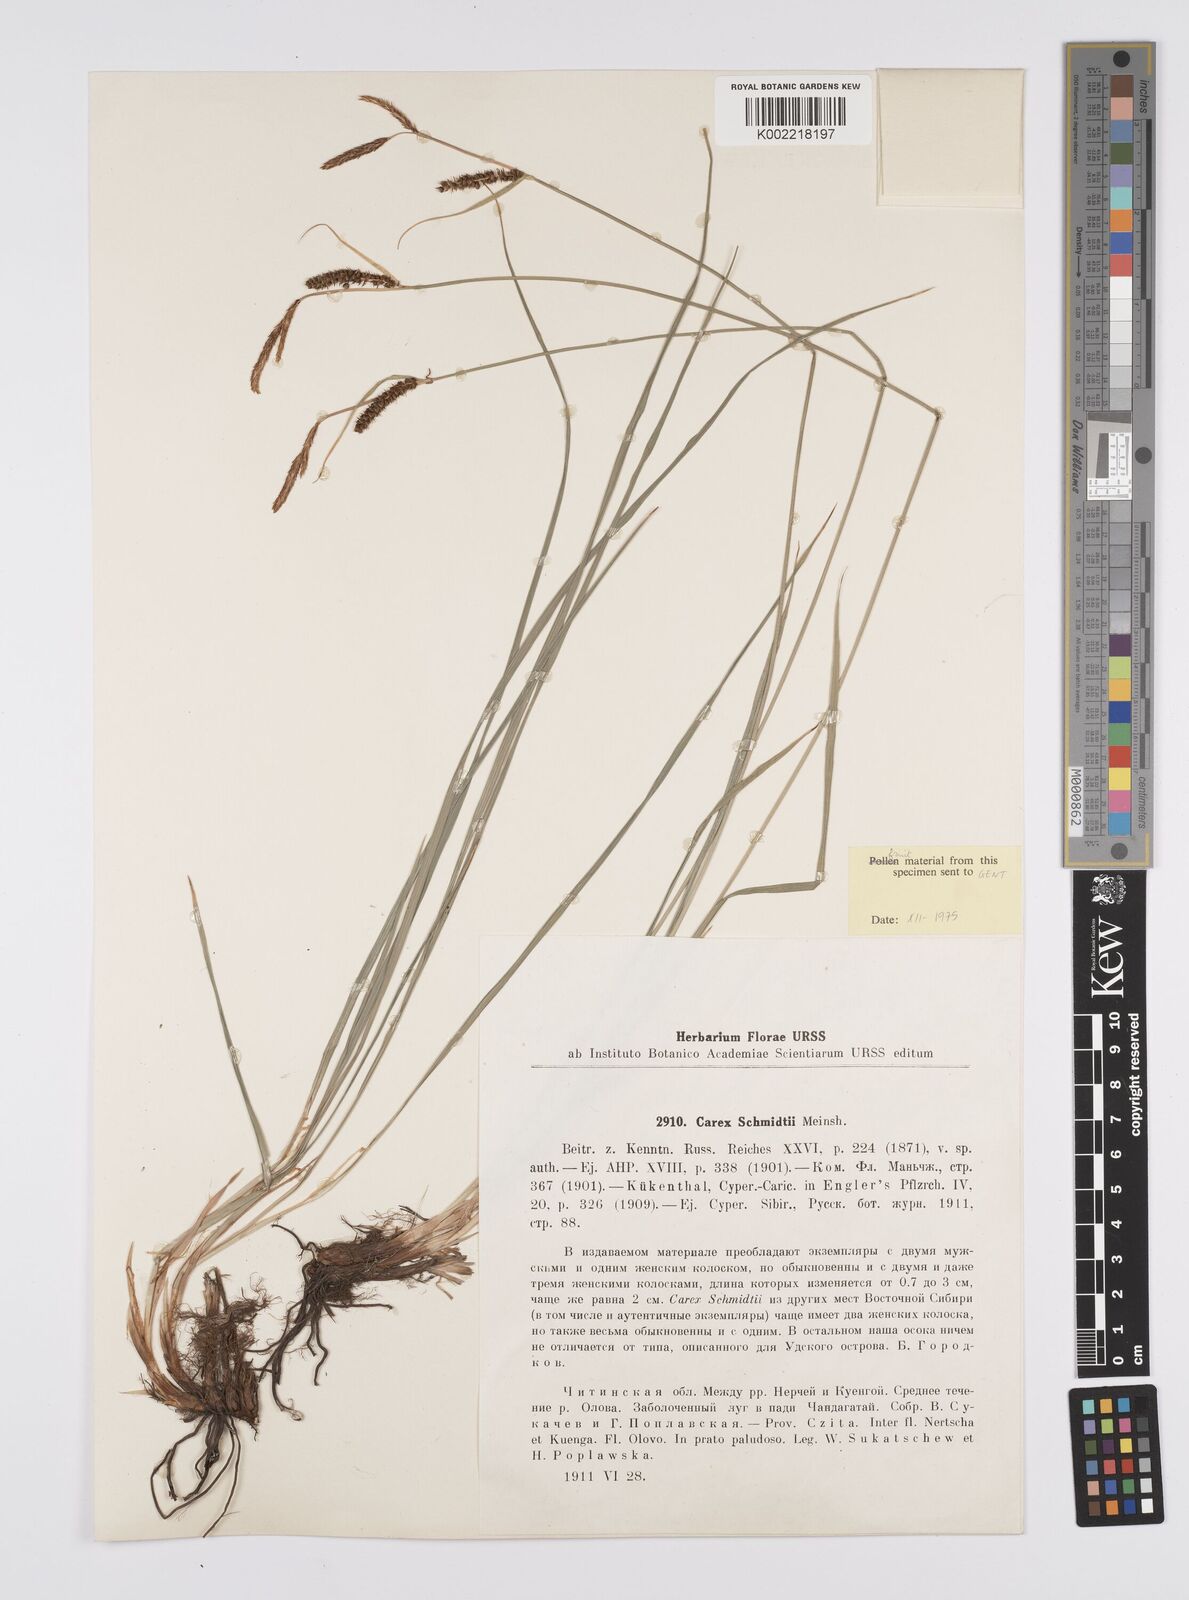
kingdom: Plantae
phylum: Tracheophyta
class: Liliopsida
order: Poales
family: Cyperaceae
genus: Carex
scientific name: Carex schmidtii
